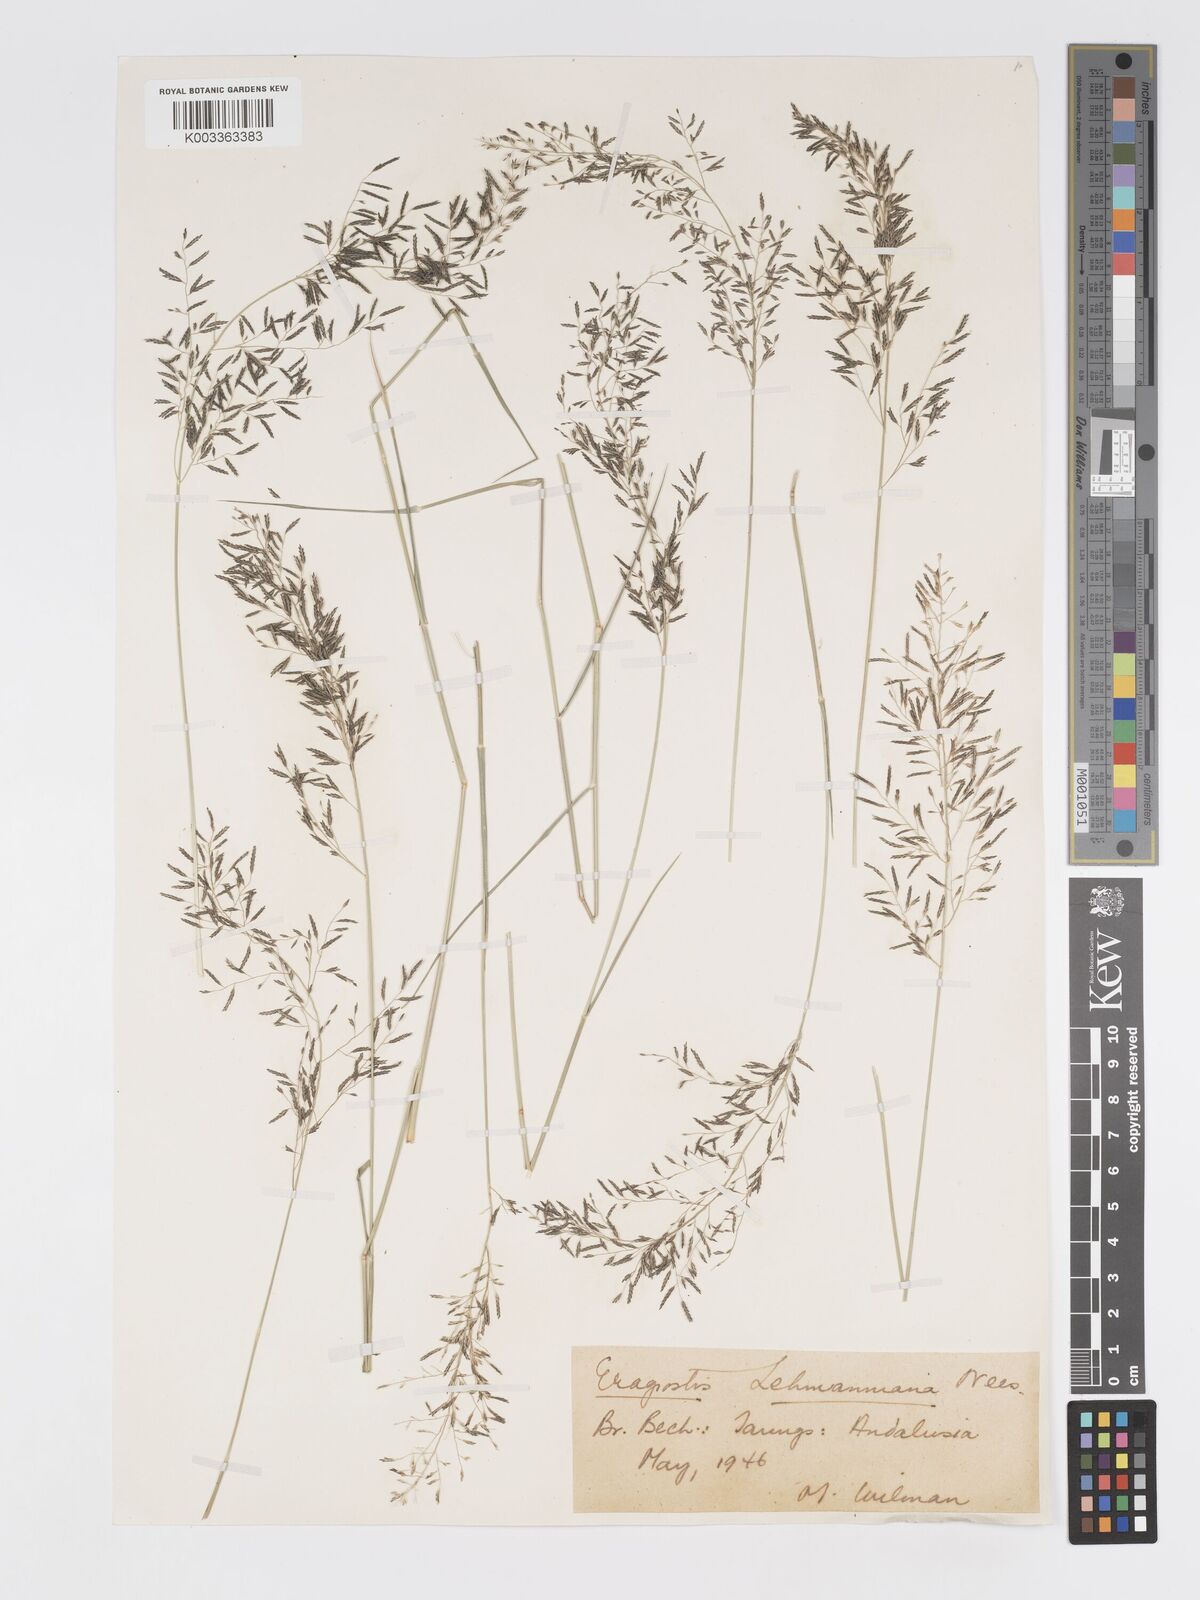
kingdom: Plantae
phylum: Tracheophyta
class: Liliopsida
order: Poales
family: Poaceae
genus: Eragrostis
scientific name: Eragrostis lehmanniana
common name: Lehmann lovegrass
